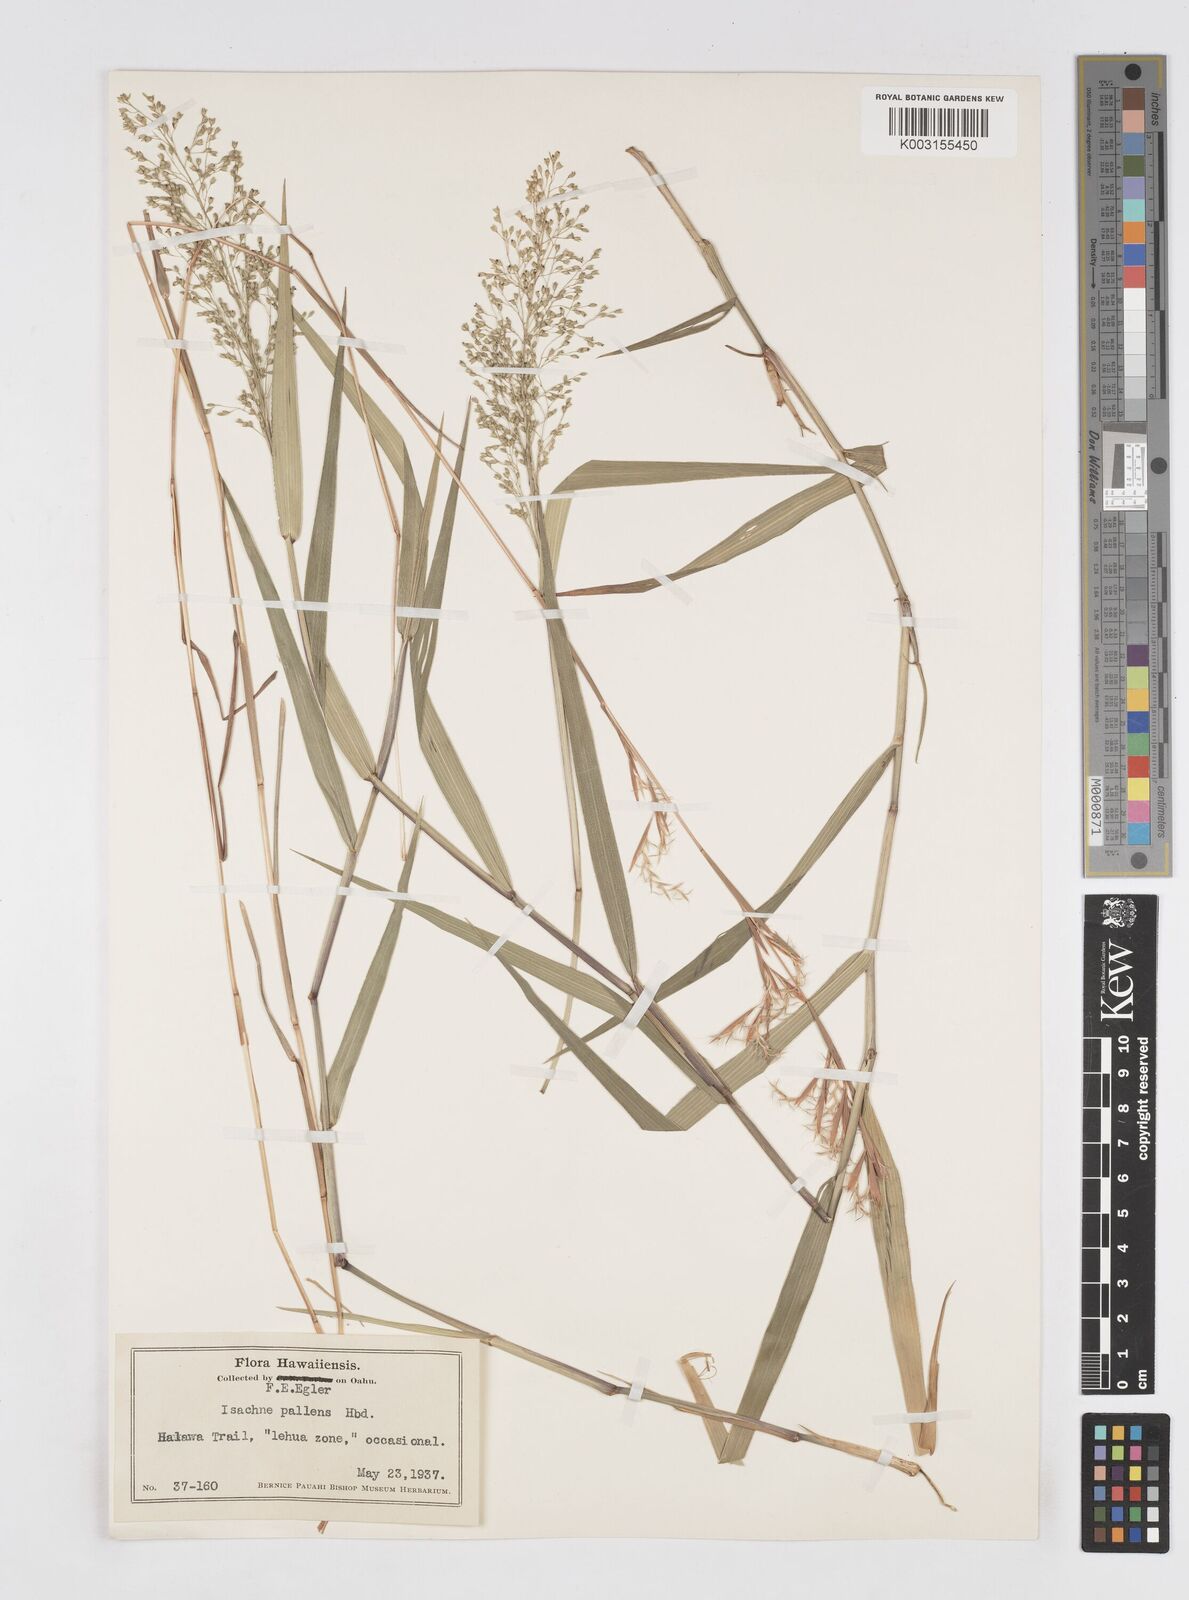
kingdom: Plantae
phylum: Tracheophyta
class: Liliopsida
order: Poales
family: Poaceae
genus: Isachne
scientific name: Isachne pallens
